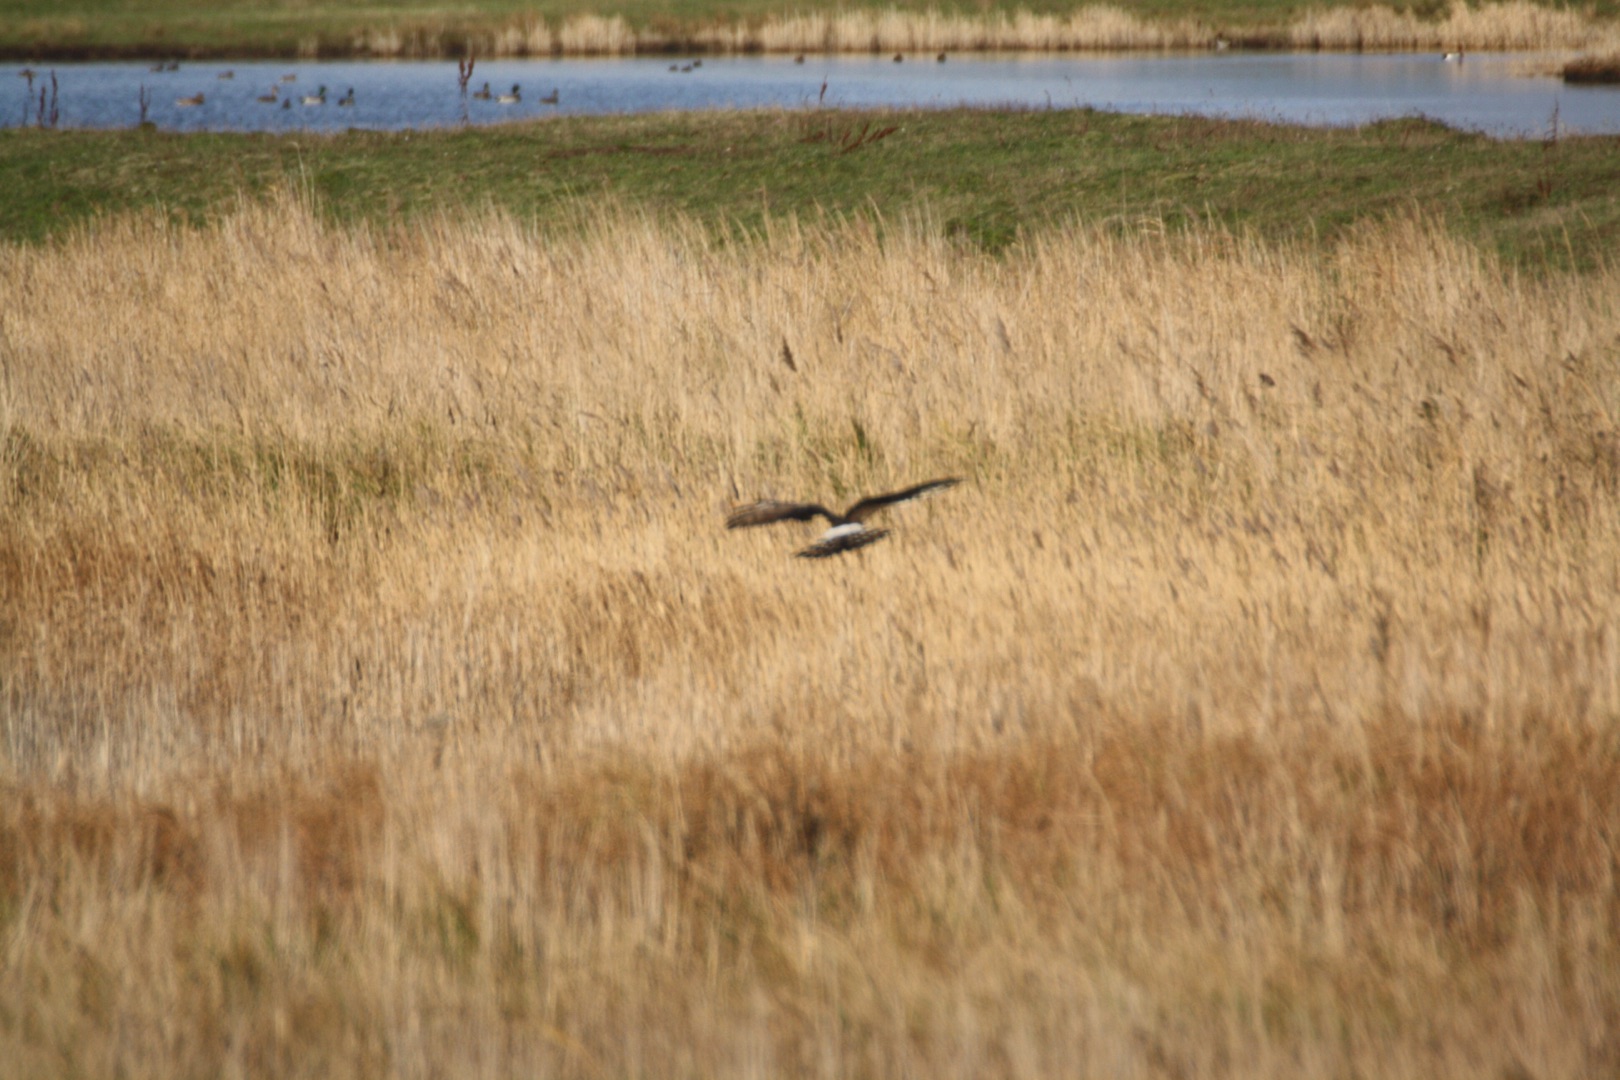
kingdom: Animalia
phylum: Chordata
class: Aves
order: Accipitriformes
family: Accipitridae
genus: Circus
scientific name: Circus cyaneus
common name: Blå kærhøg
